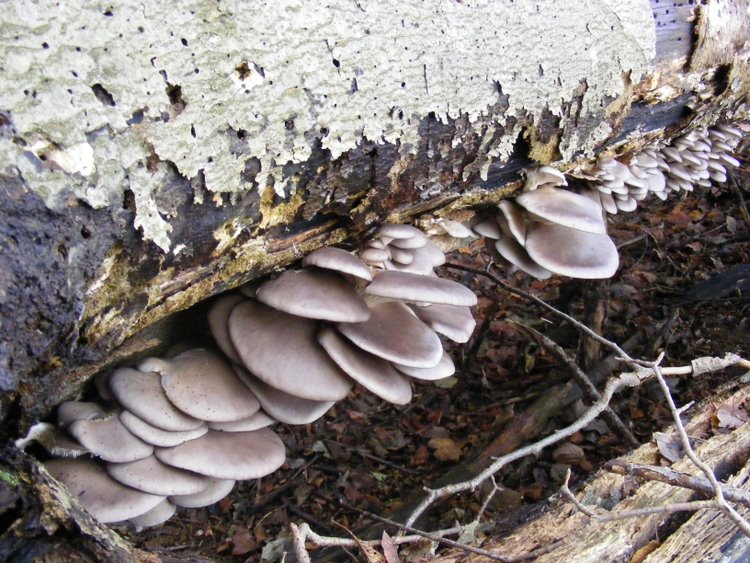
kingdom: Fungi
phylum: Basidiomycota
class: Agaricomycetes
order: Agaricales
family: Pleurotaceae
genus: Pleurotus
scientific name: Pleurotus ostreatus
